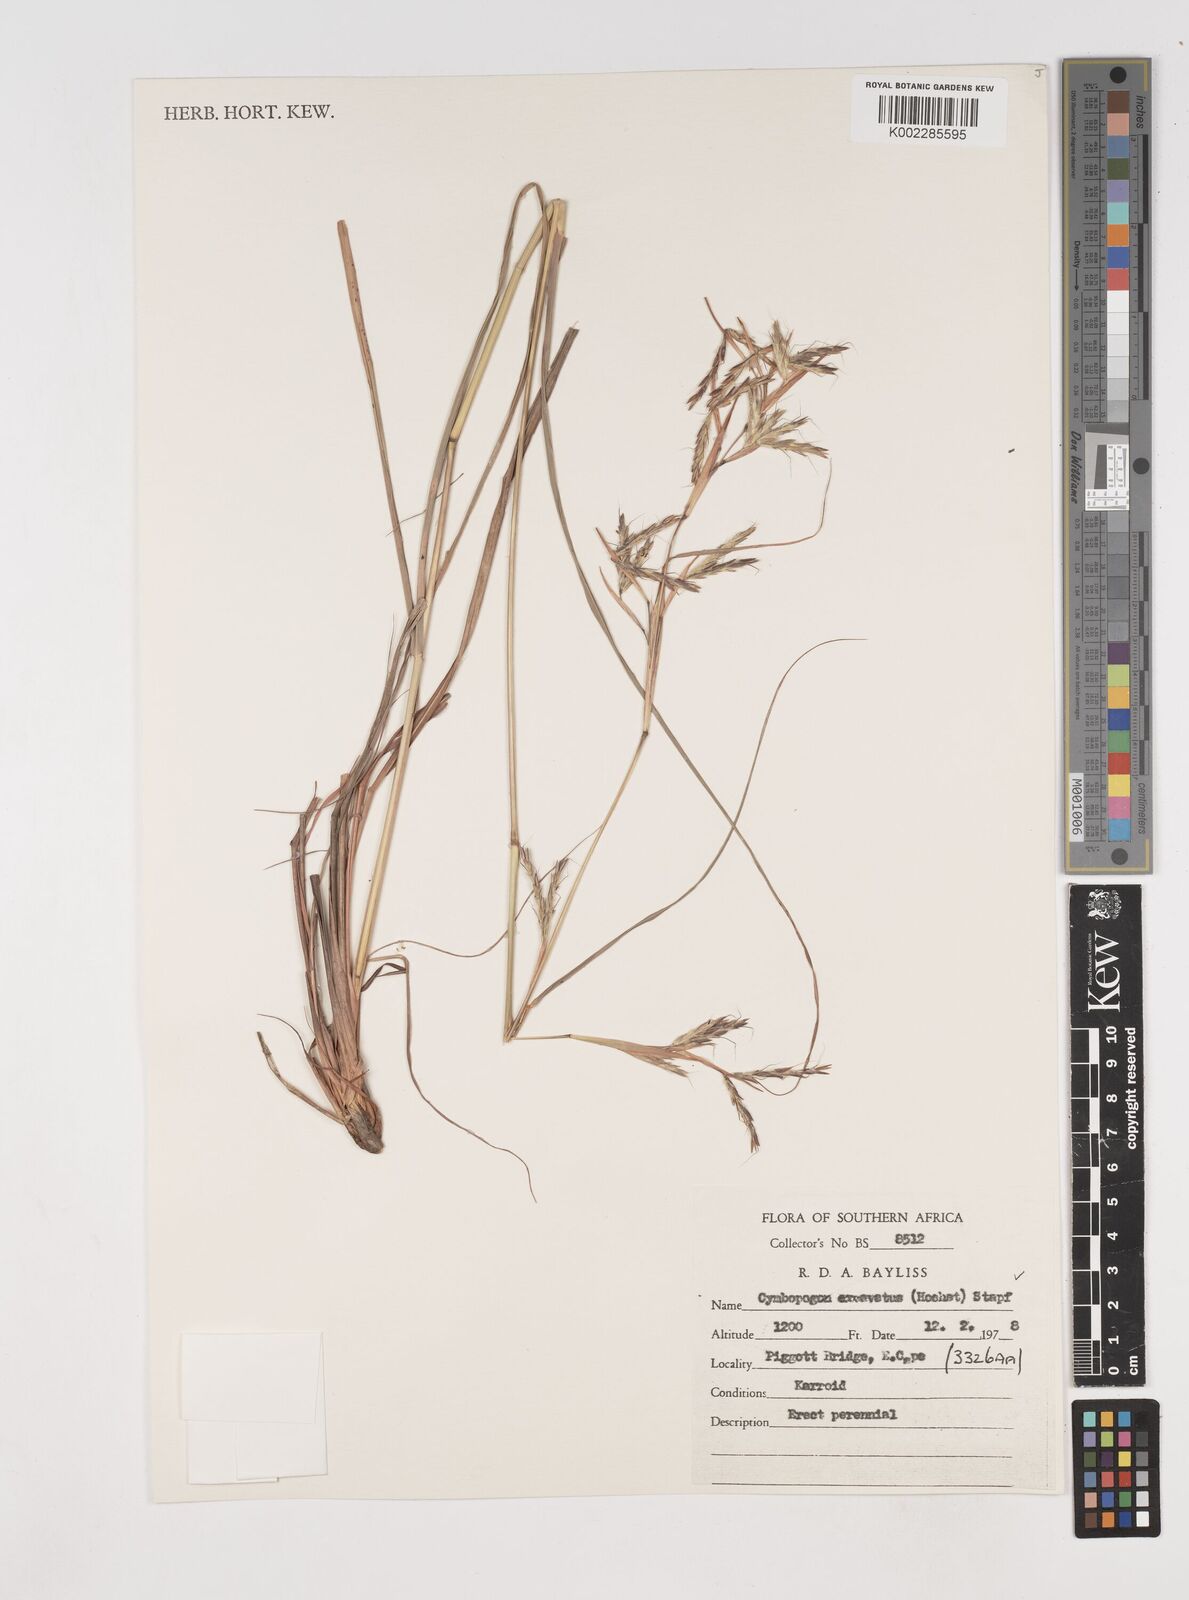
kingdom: Plantae
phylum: Tracheophyta
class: Liliopsida
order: Poales
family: Poaceae
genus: Cymbopogon
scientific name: Cymbopogon caesius
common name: Kachi grass
